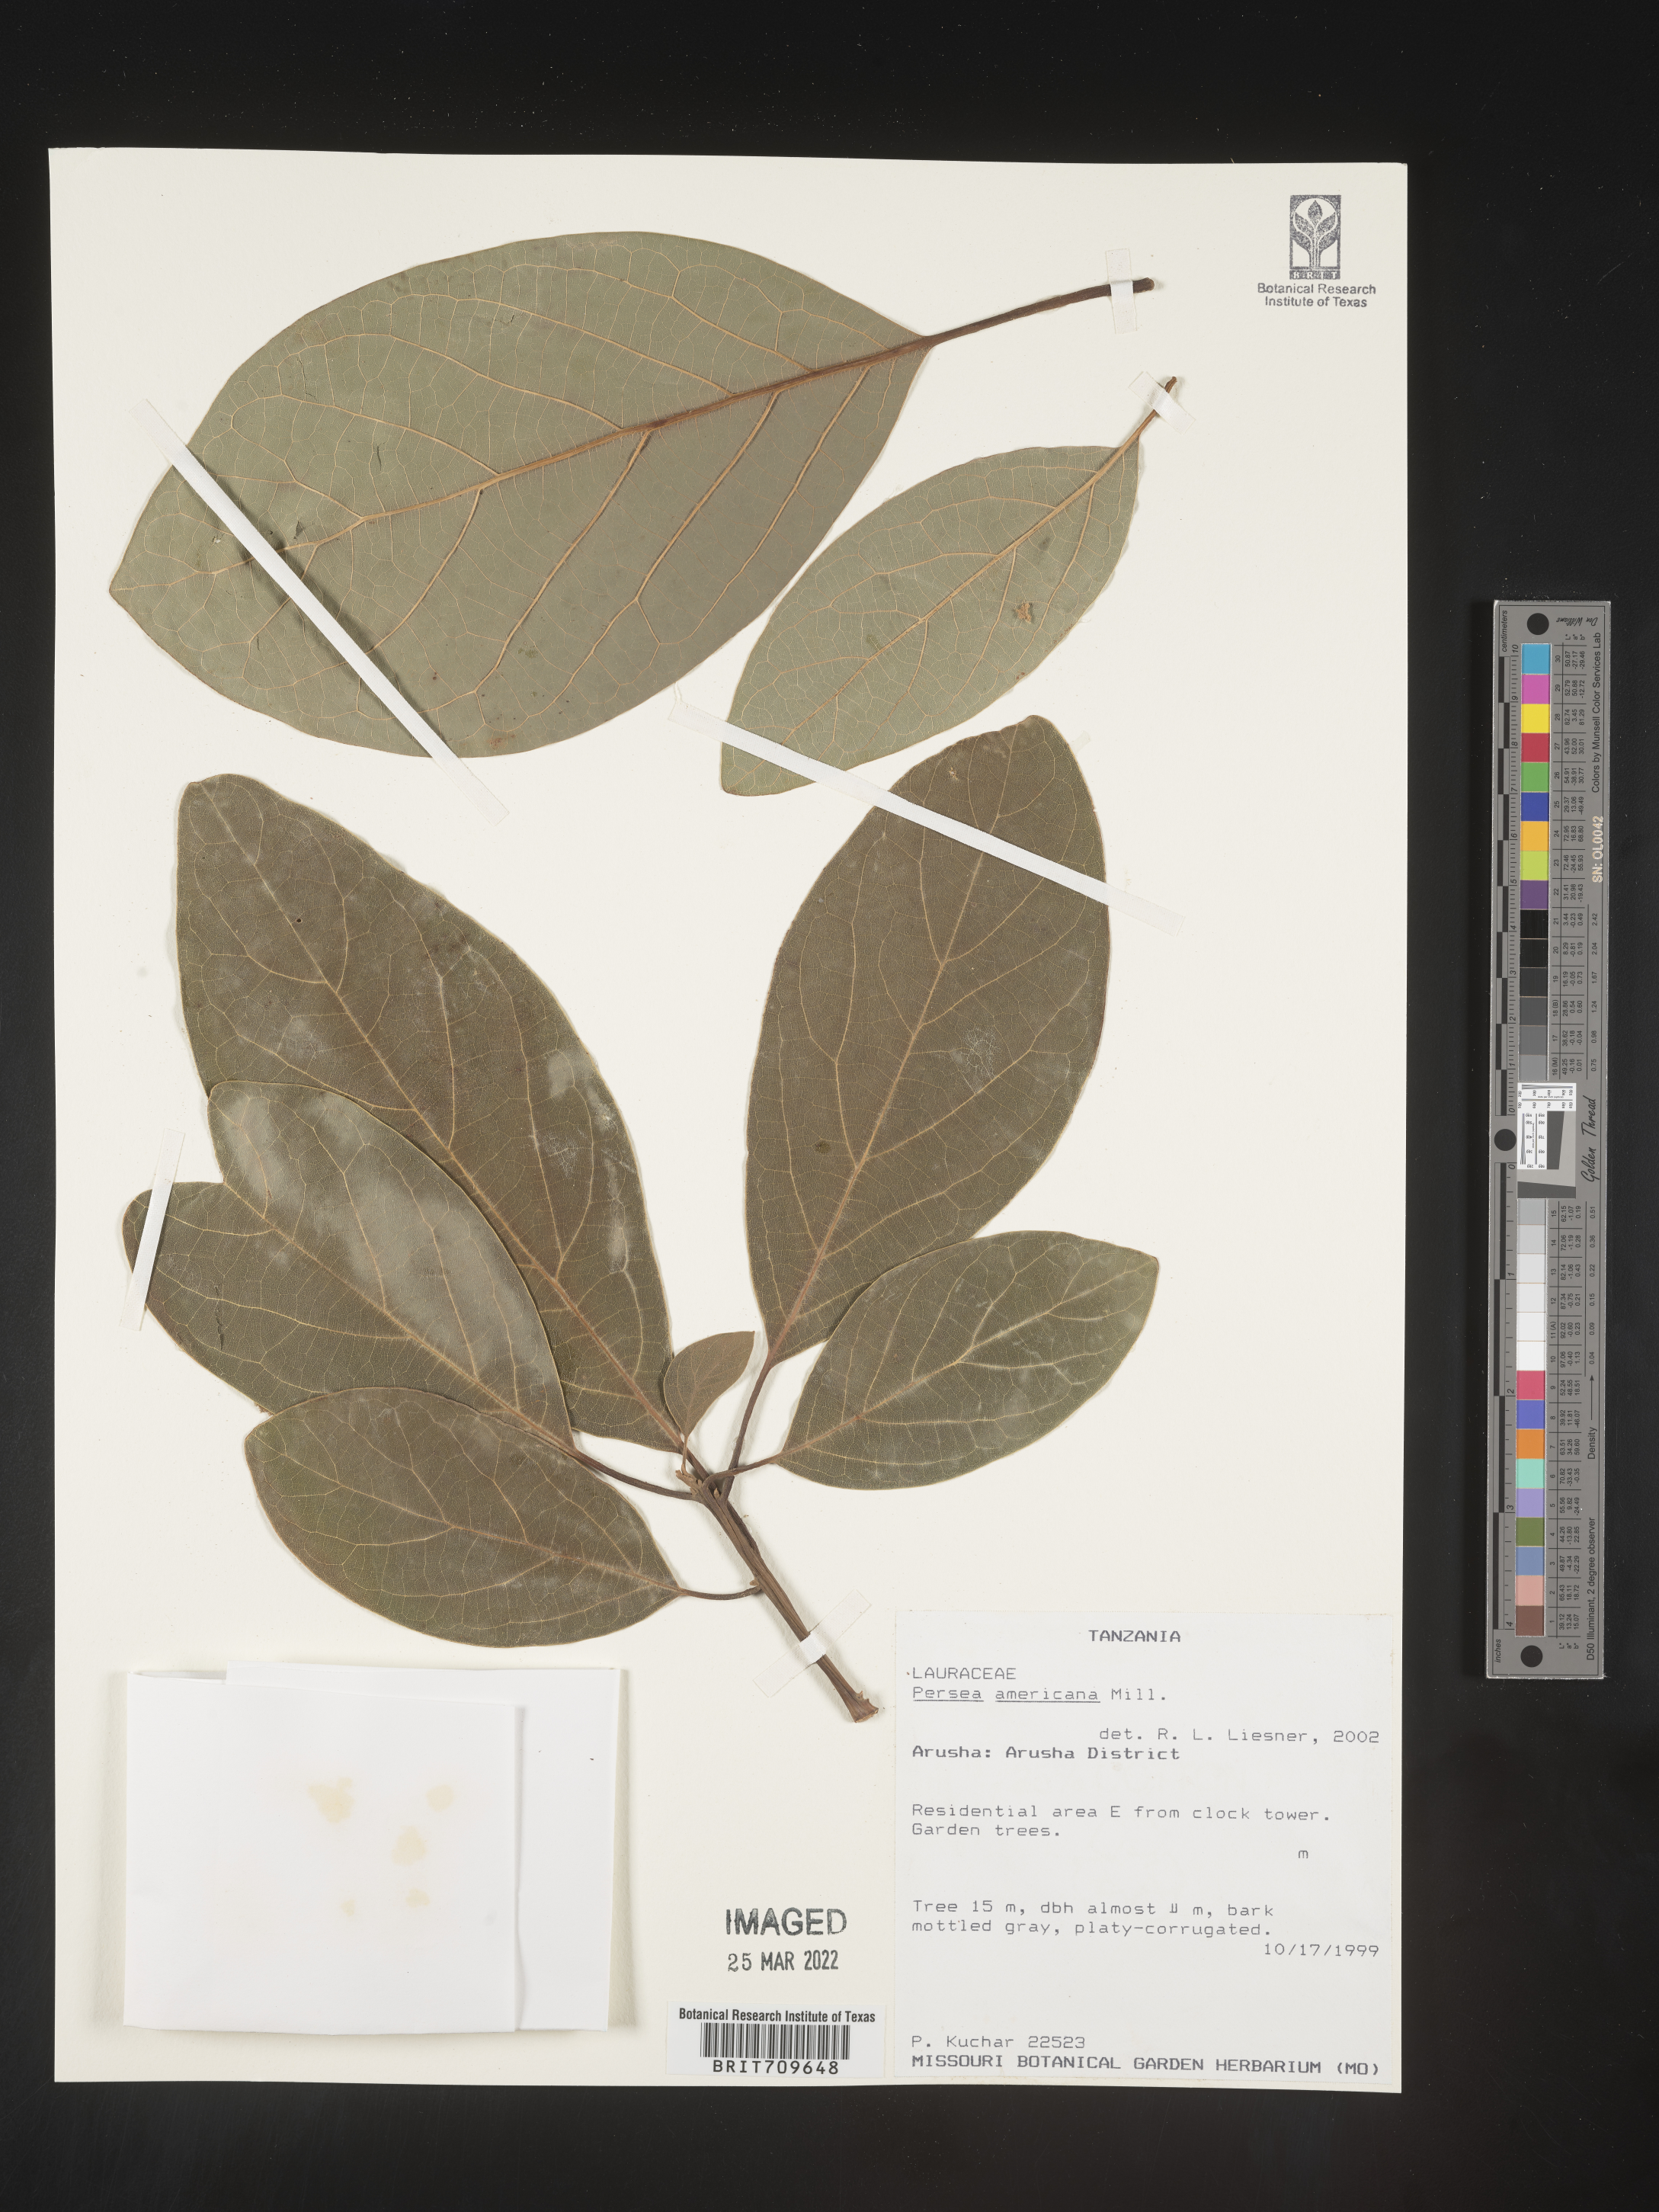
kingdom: Plantae
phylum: Tracheophyta
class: Magnoliopsida
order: Laurales
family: Lauraceae
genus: Persea
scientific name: Persea
